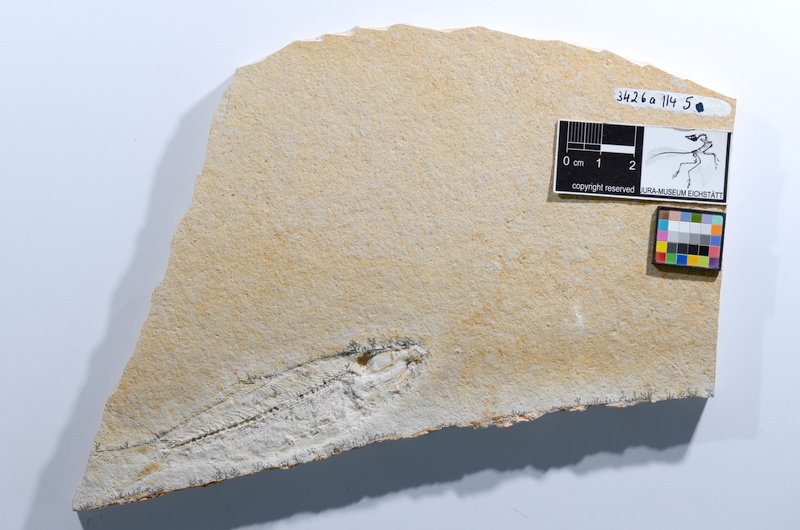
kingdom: Animalia
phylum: Chordata
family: Ascalaboidae
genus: Ascalabos
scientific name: Ascalabos voithii
